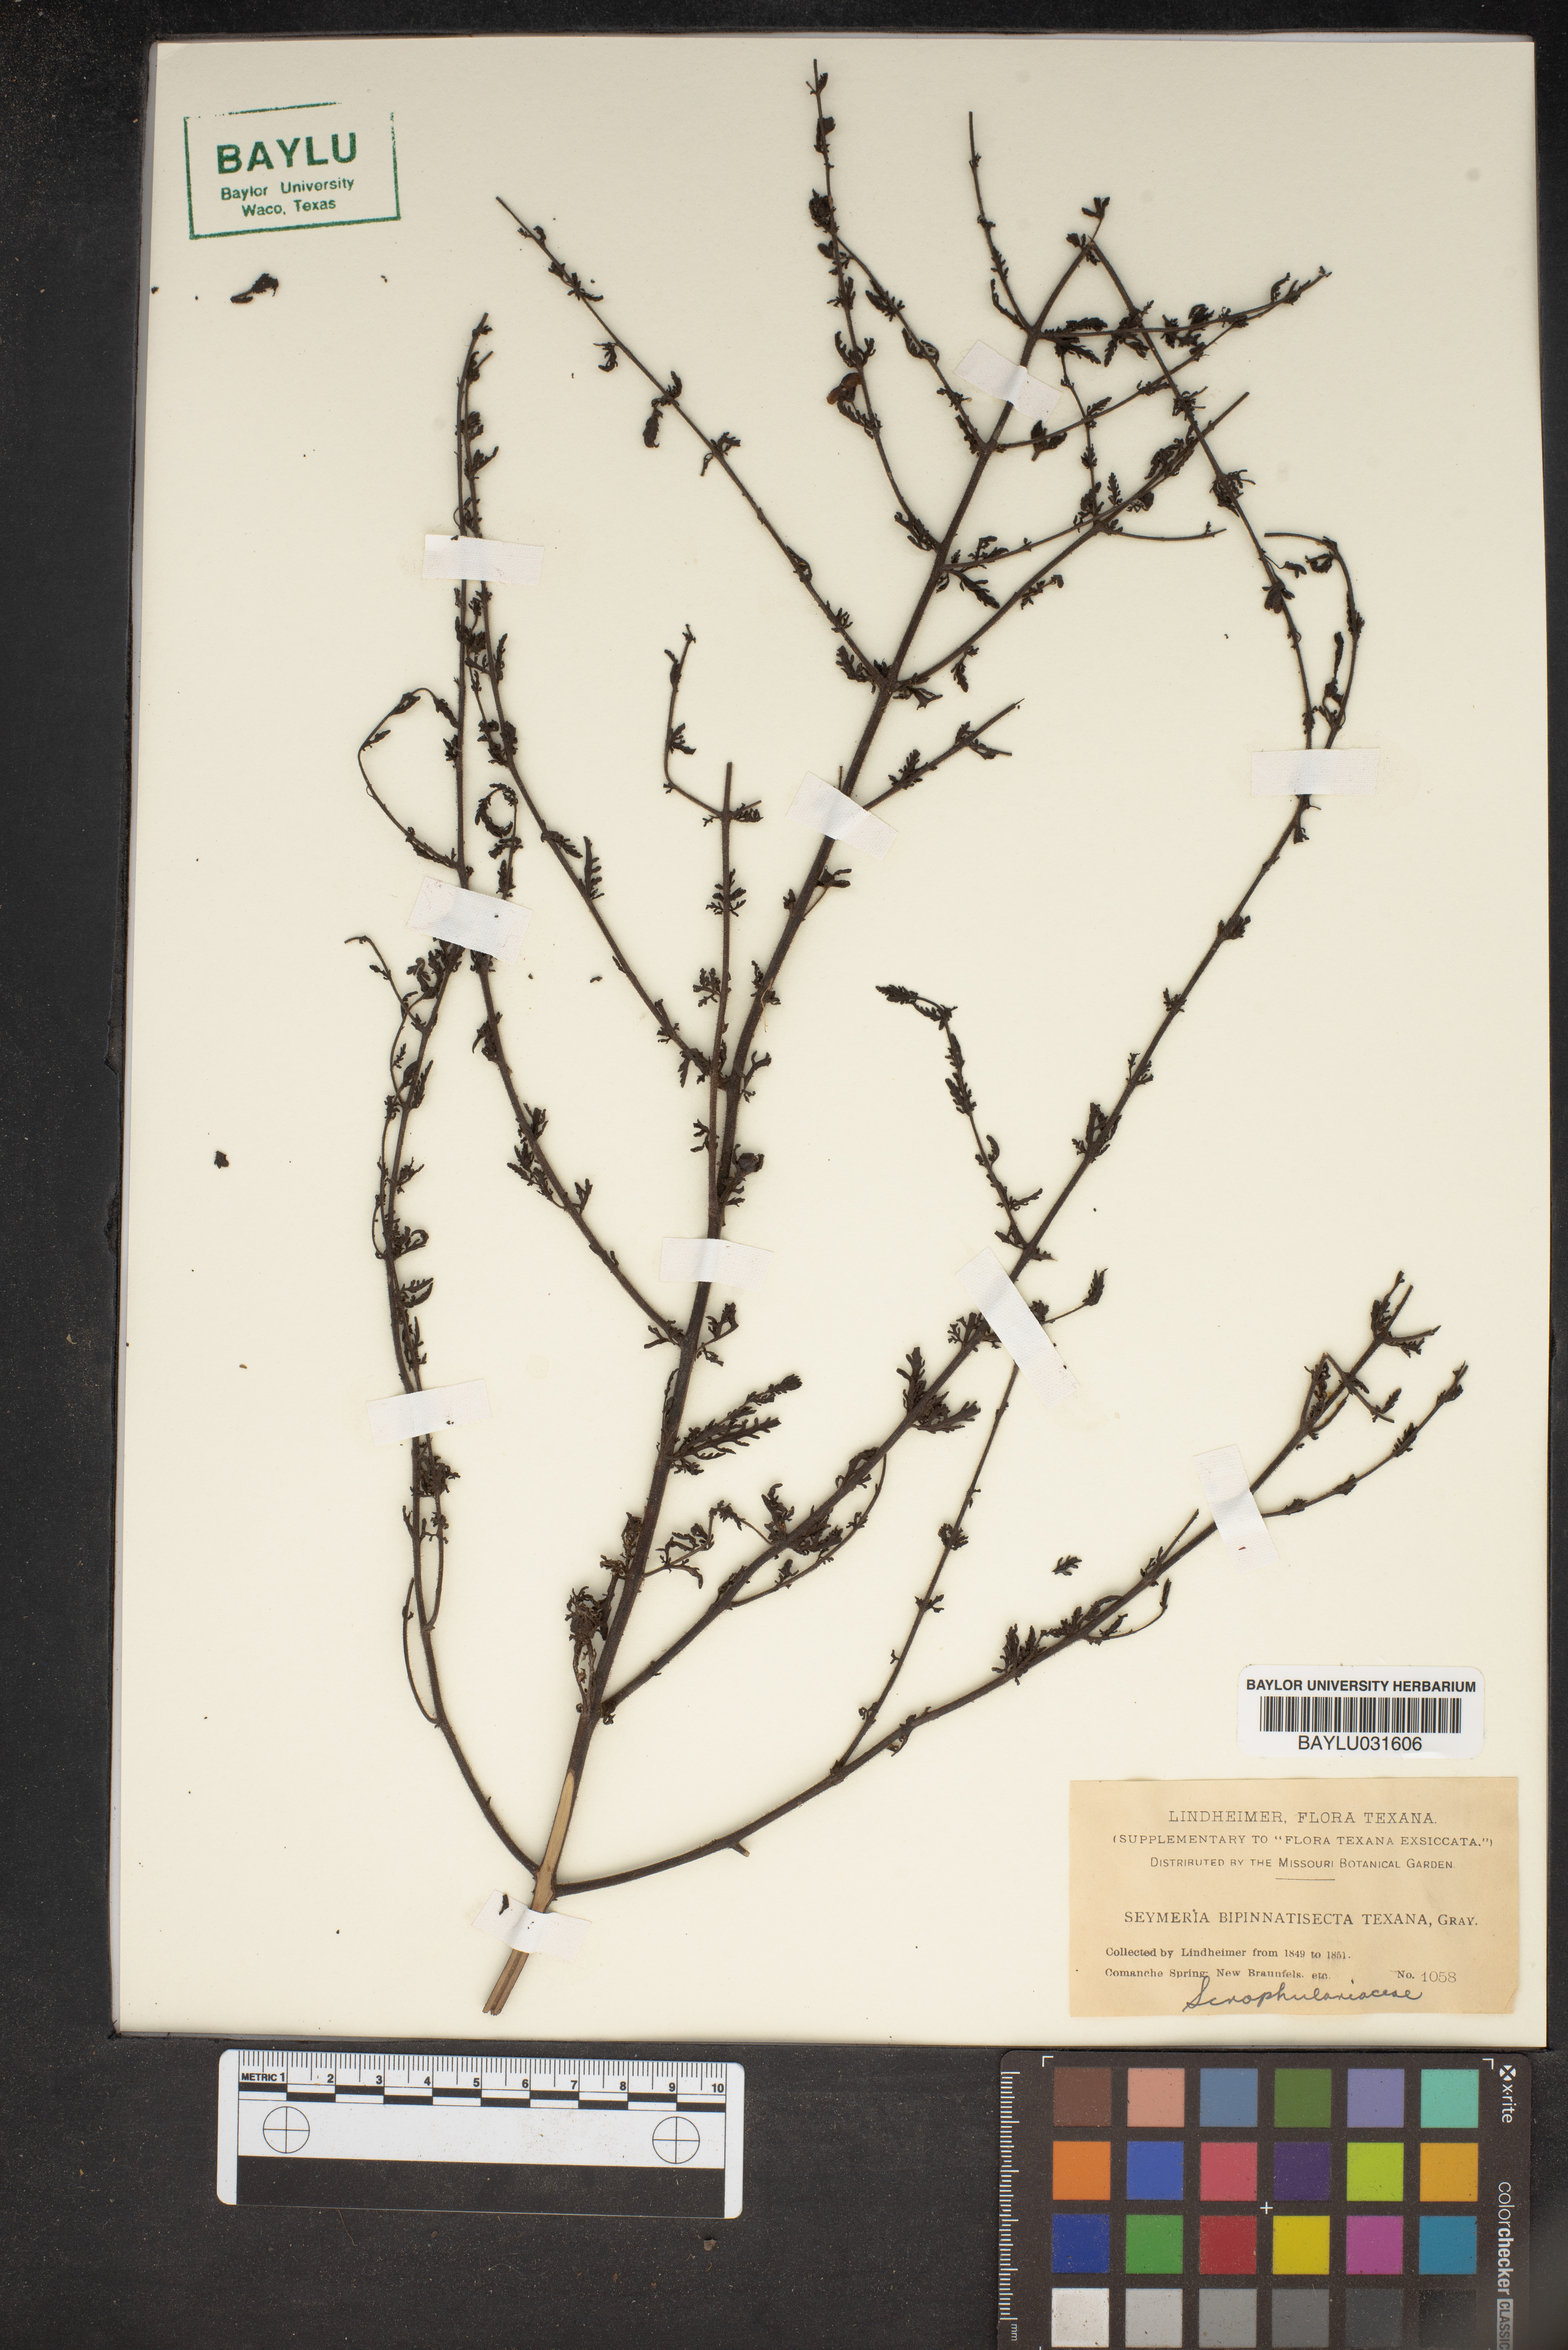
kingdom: Plantae
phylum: Tracheophyta
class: Magnoliopsida
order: Lamiales
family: Orobanchaceae
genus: Seymeria
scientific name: Seymeria bipinnatisecta
